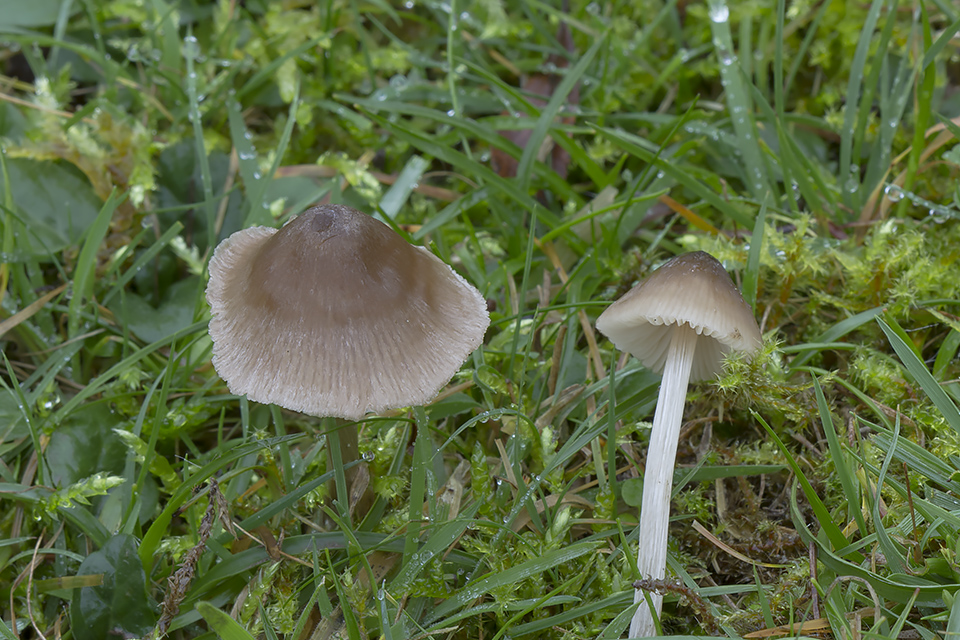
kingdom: Fungi
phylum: Basidiomycota
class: Agaricomycetes
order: Agaricales
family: Entolomataceae
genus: Entoloma
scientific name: Entoloma conferendum
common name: stjernesporet rødblad
